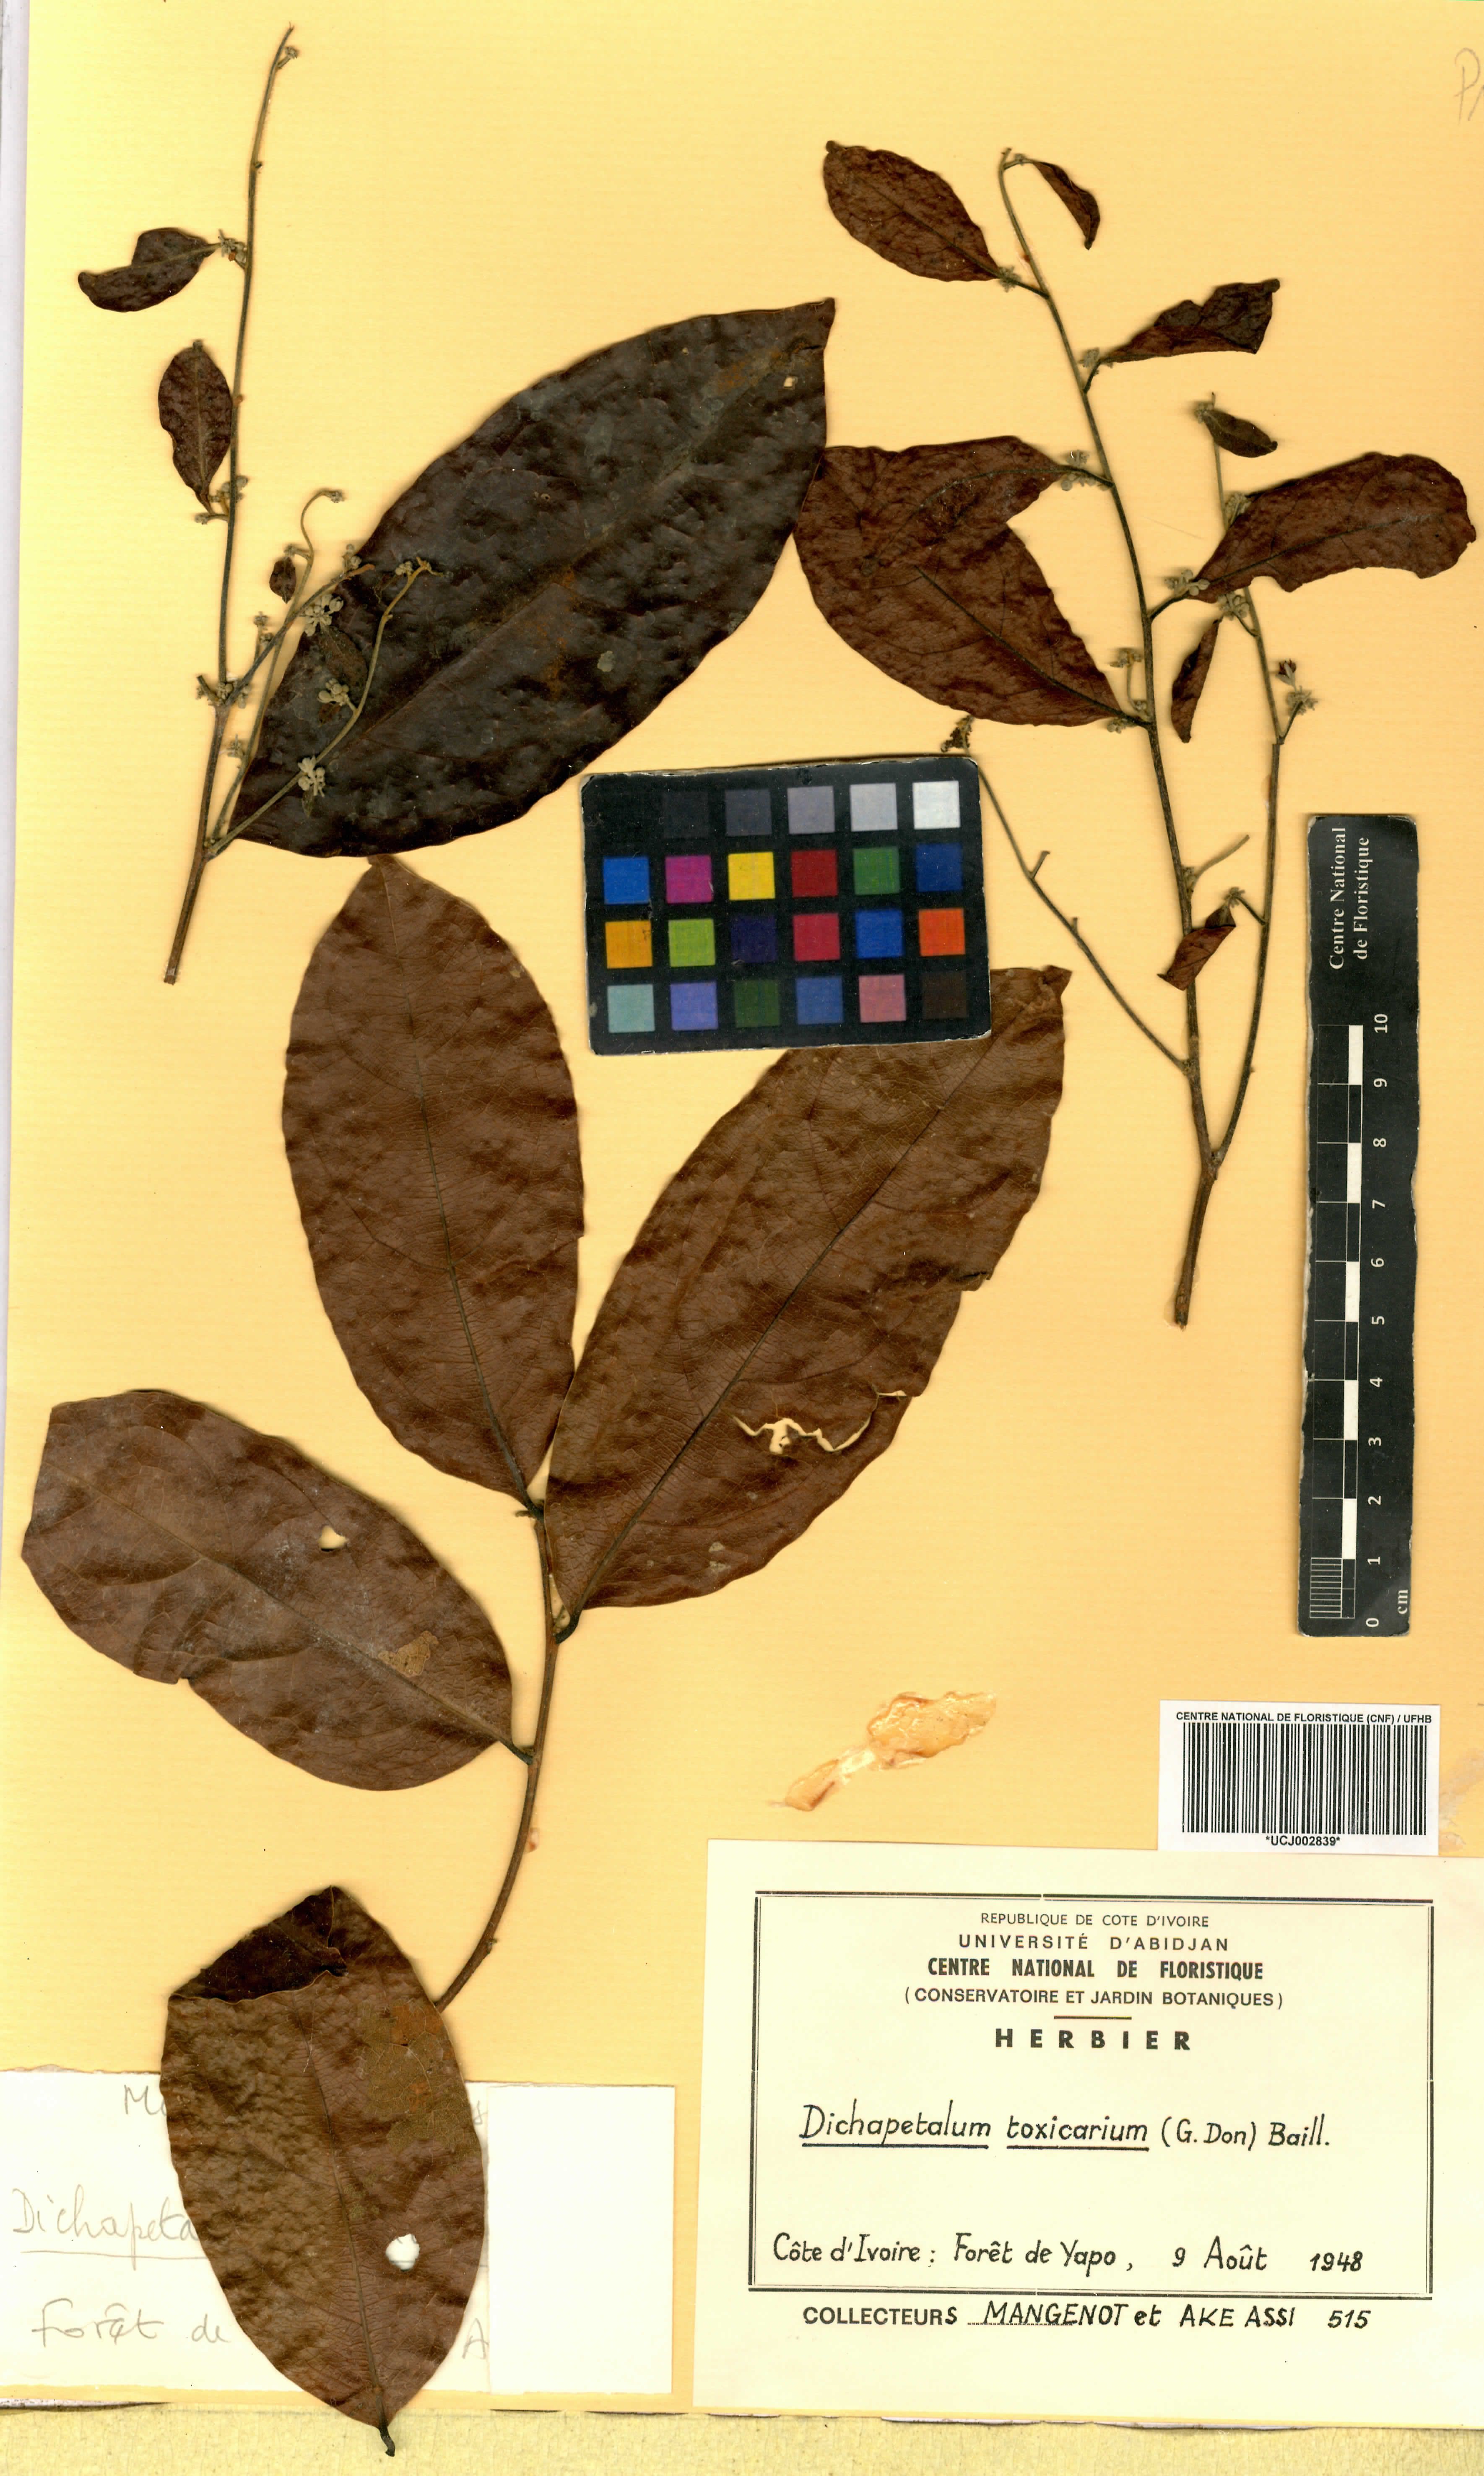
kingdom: Plantae
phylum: Tracheophyta
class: Magnoliopsida
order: Malpighiales
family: Dichapetalaceae
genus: Dichapetalum
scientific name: Dichapetalum toxicarium
